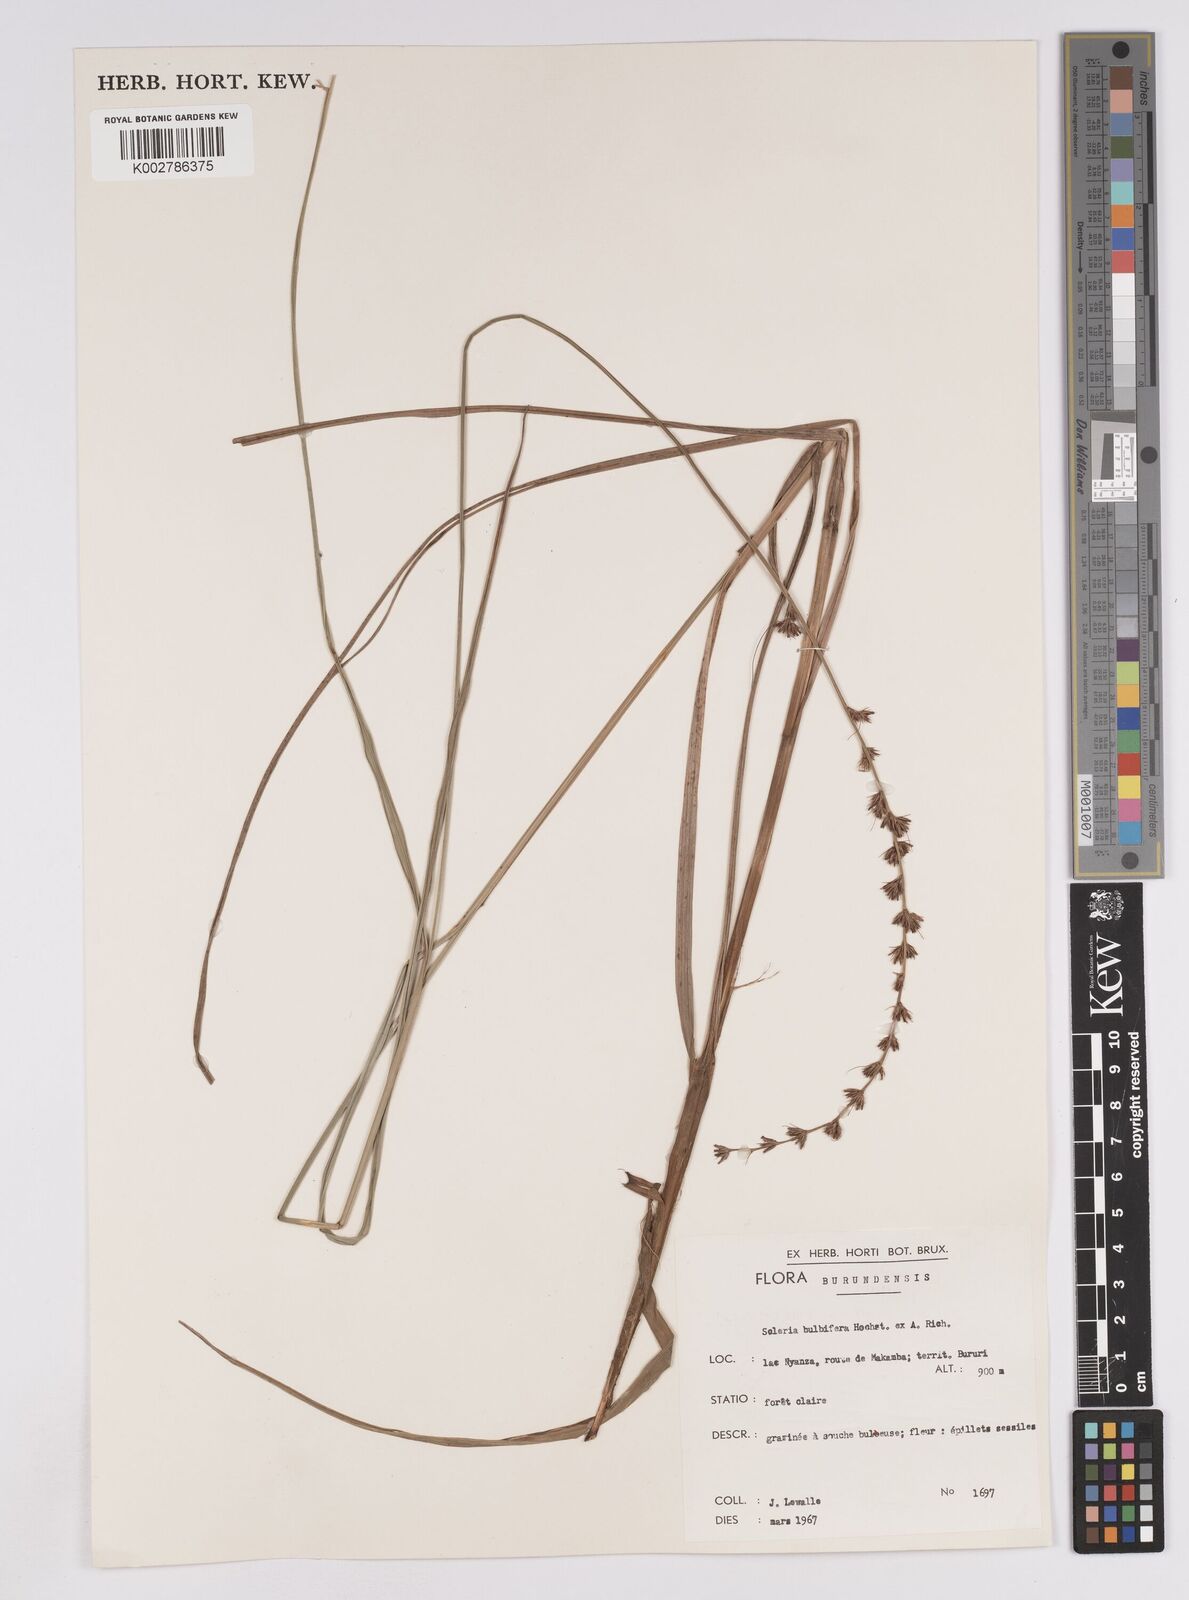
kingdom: Plantae
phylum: Tracheophyta
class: Liliopsida
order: Poales
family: Cyperaceae
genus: Scleria
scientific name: Scleria bulbifera
